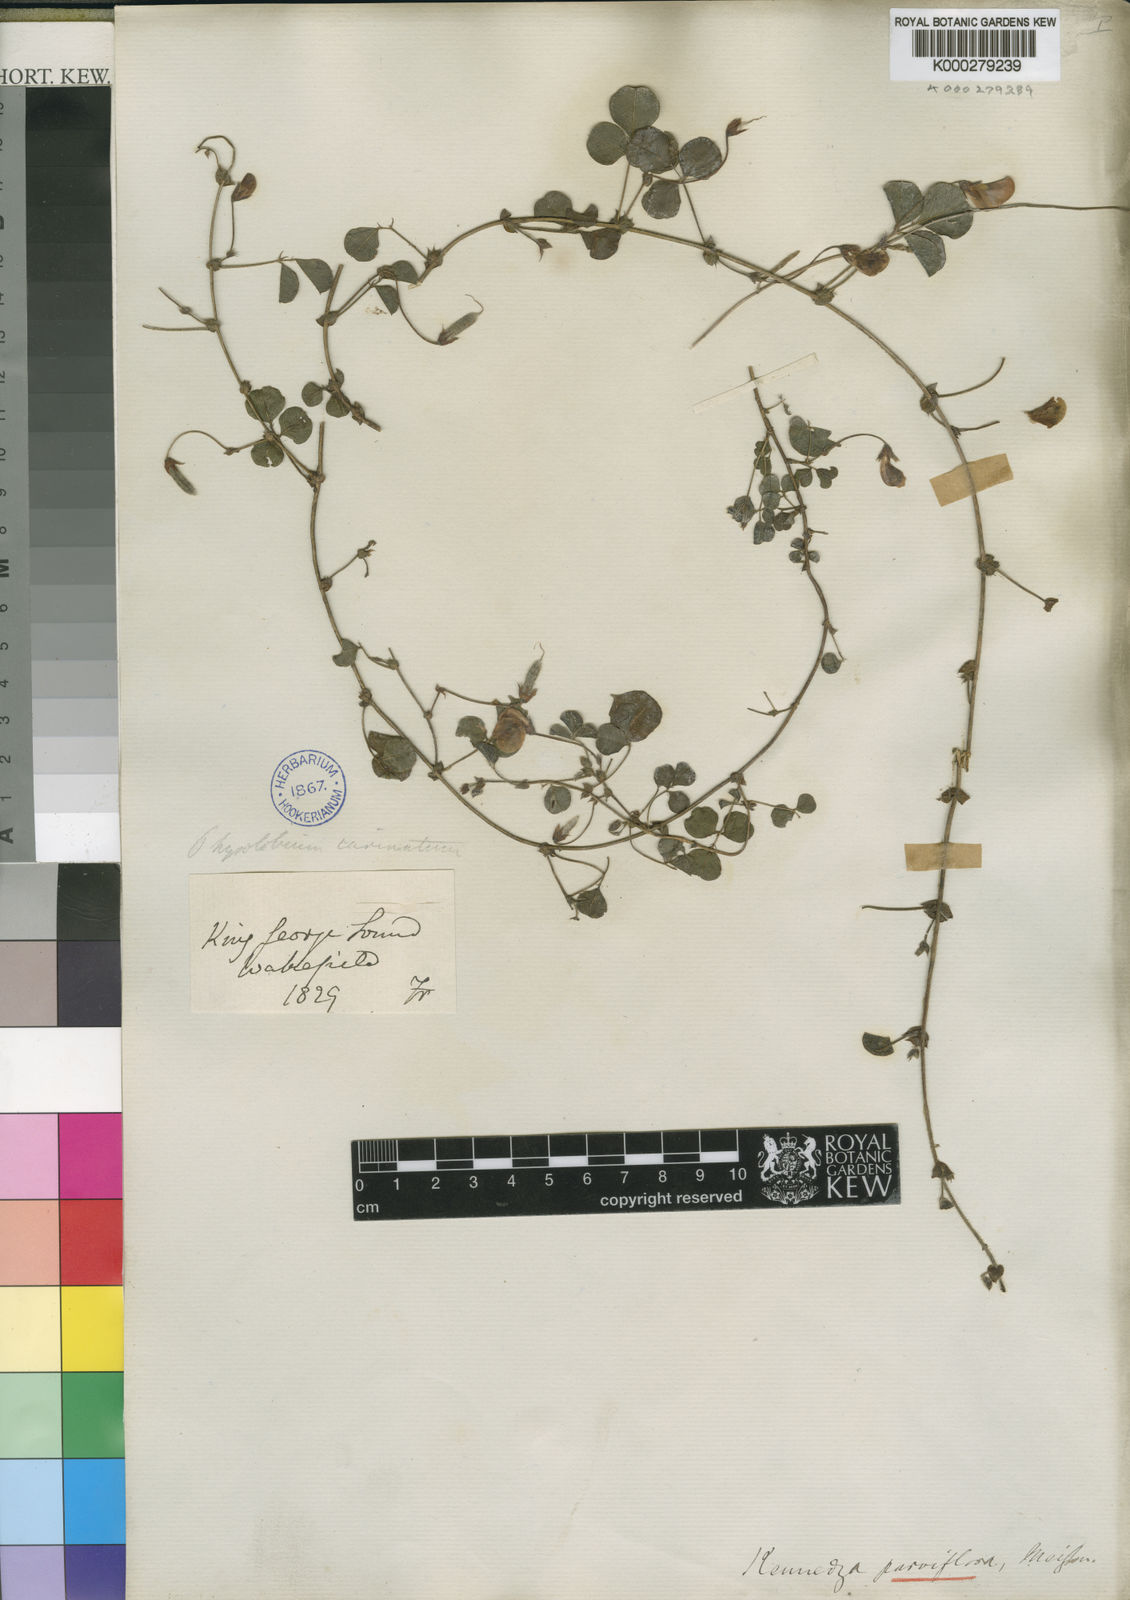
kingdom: Plantae
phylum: Tracheophyta
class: Magnoliopsida
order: Fabales
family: Fabaceae
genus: Kennedia
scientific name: Kennedia parviflora
